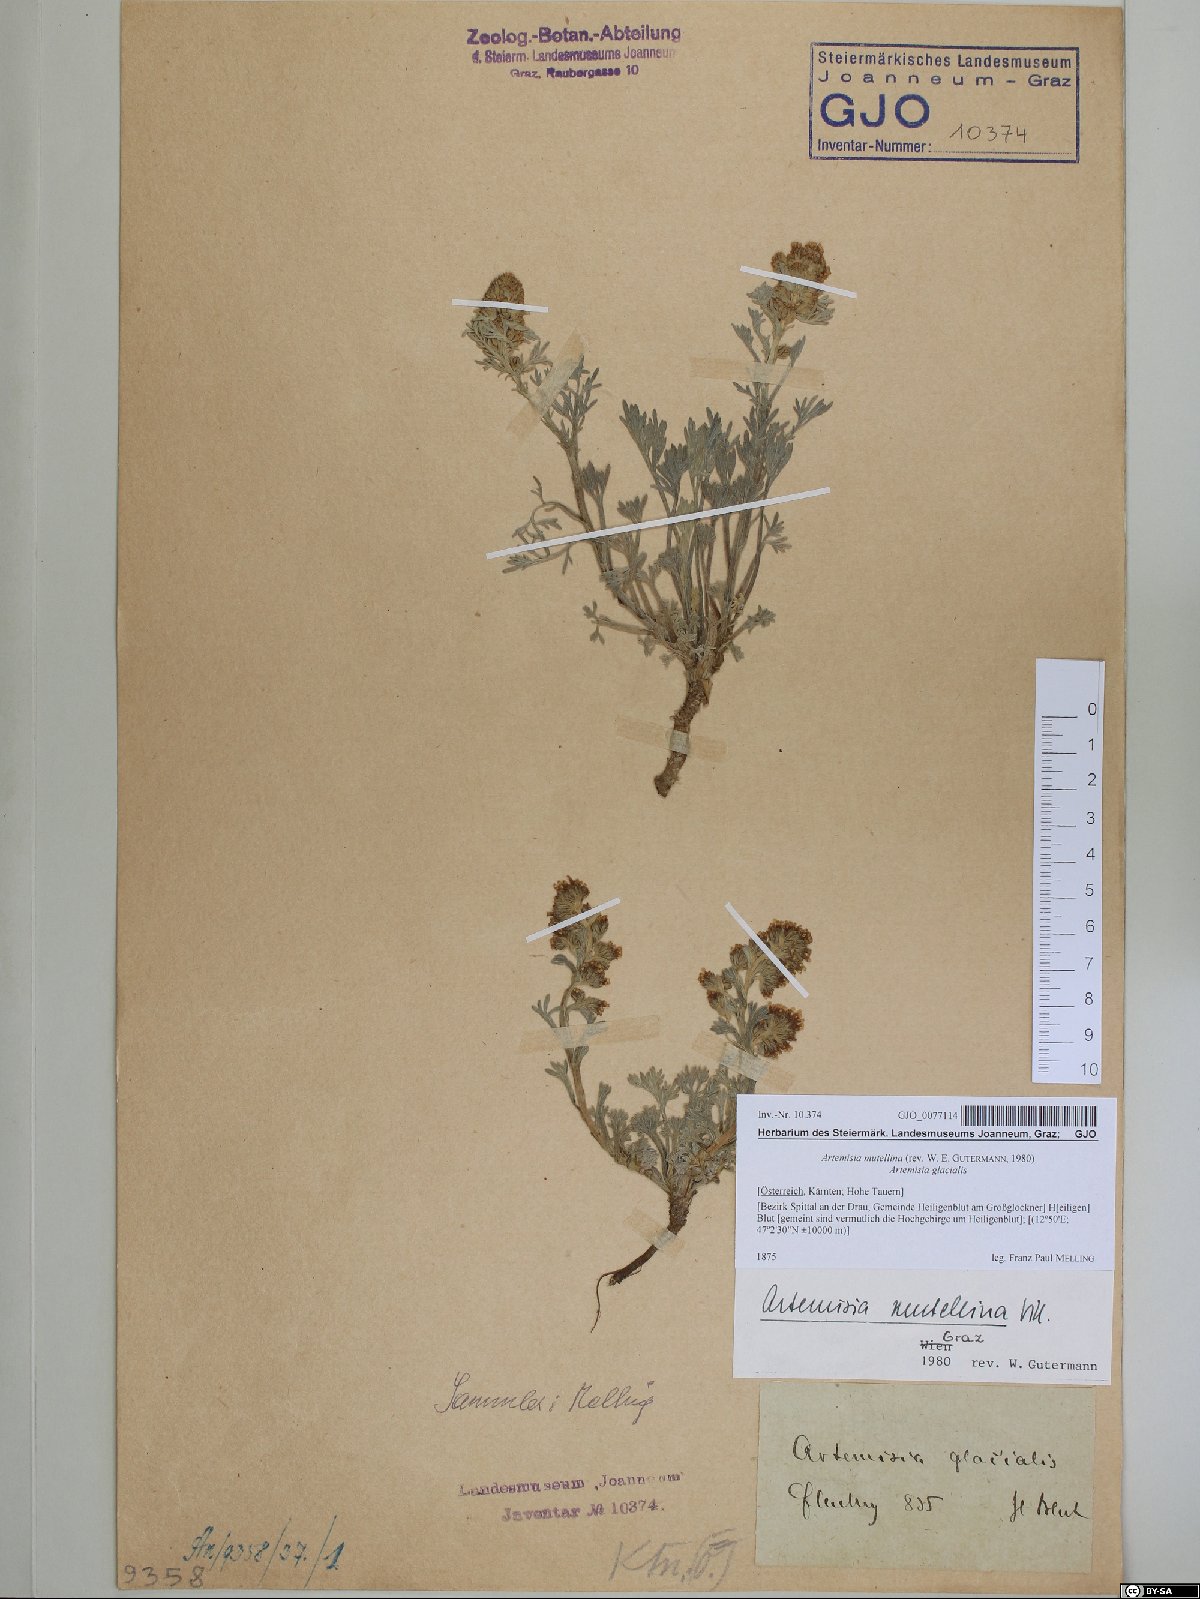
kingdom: Plantae
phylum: Tracheophyta
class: Magnoliopsida
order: Asterales
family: Asteraceae
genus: Artemisia
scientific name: Artemisia mutellina
